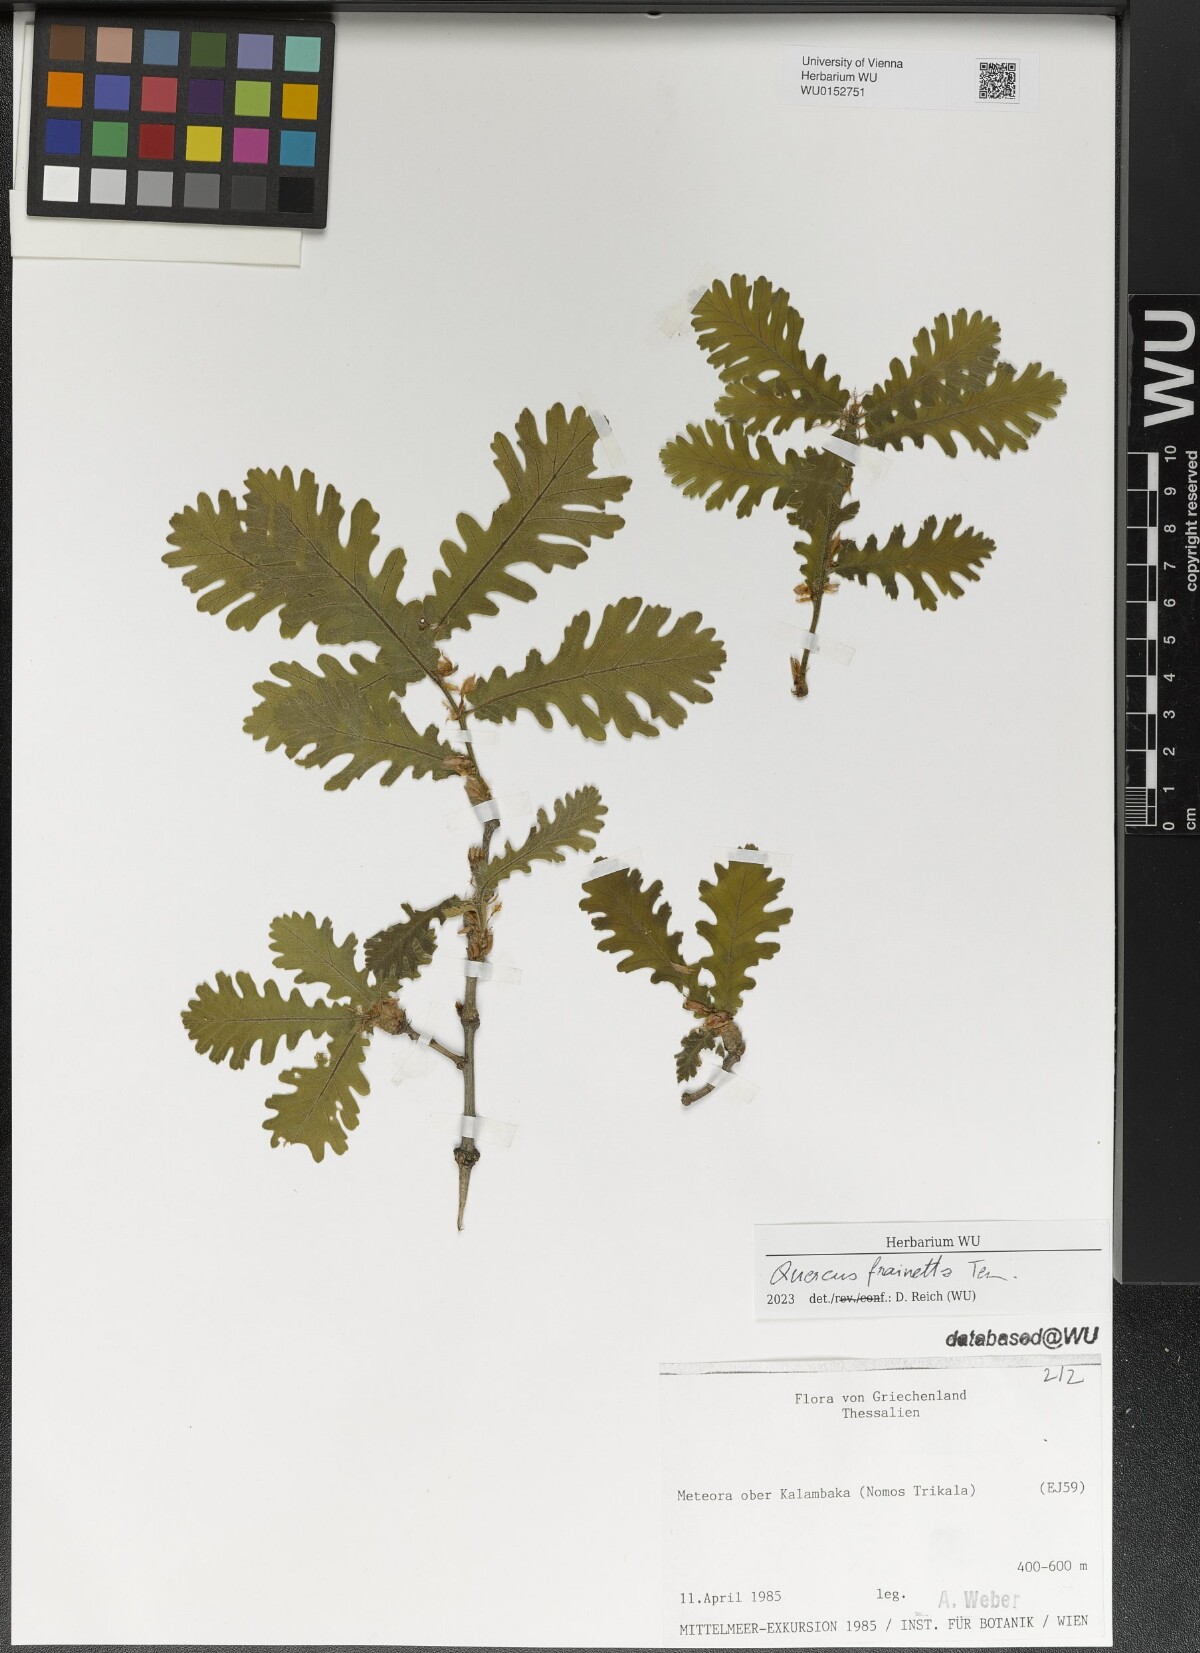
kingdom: Plantae
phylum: Tracheophyta
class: Magnoliopsida
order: Fagales
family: Fagaceae
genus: Quercus
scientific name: Quercus conferta
